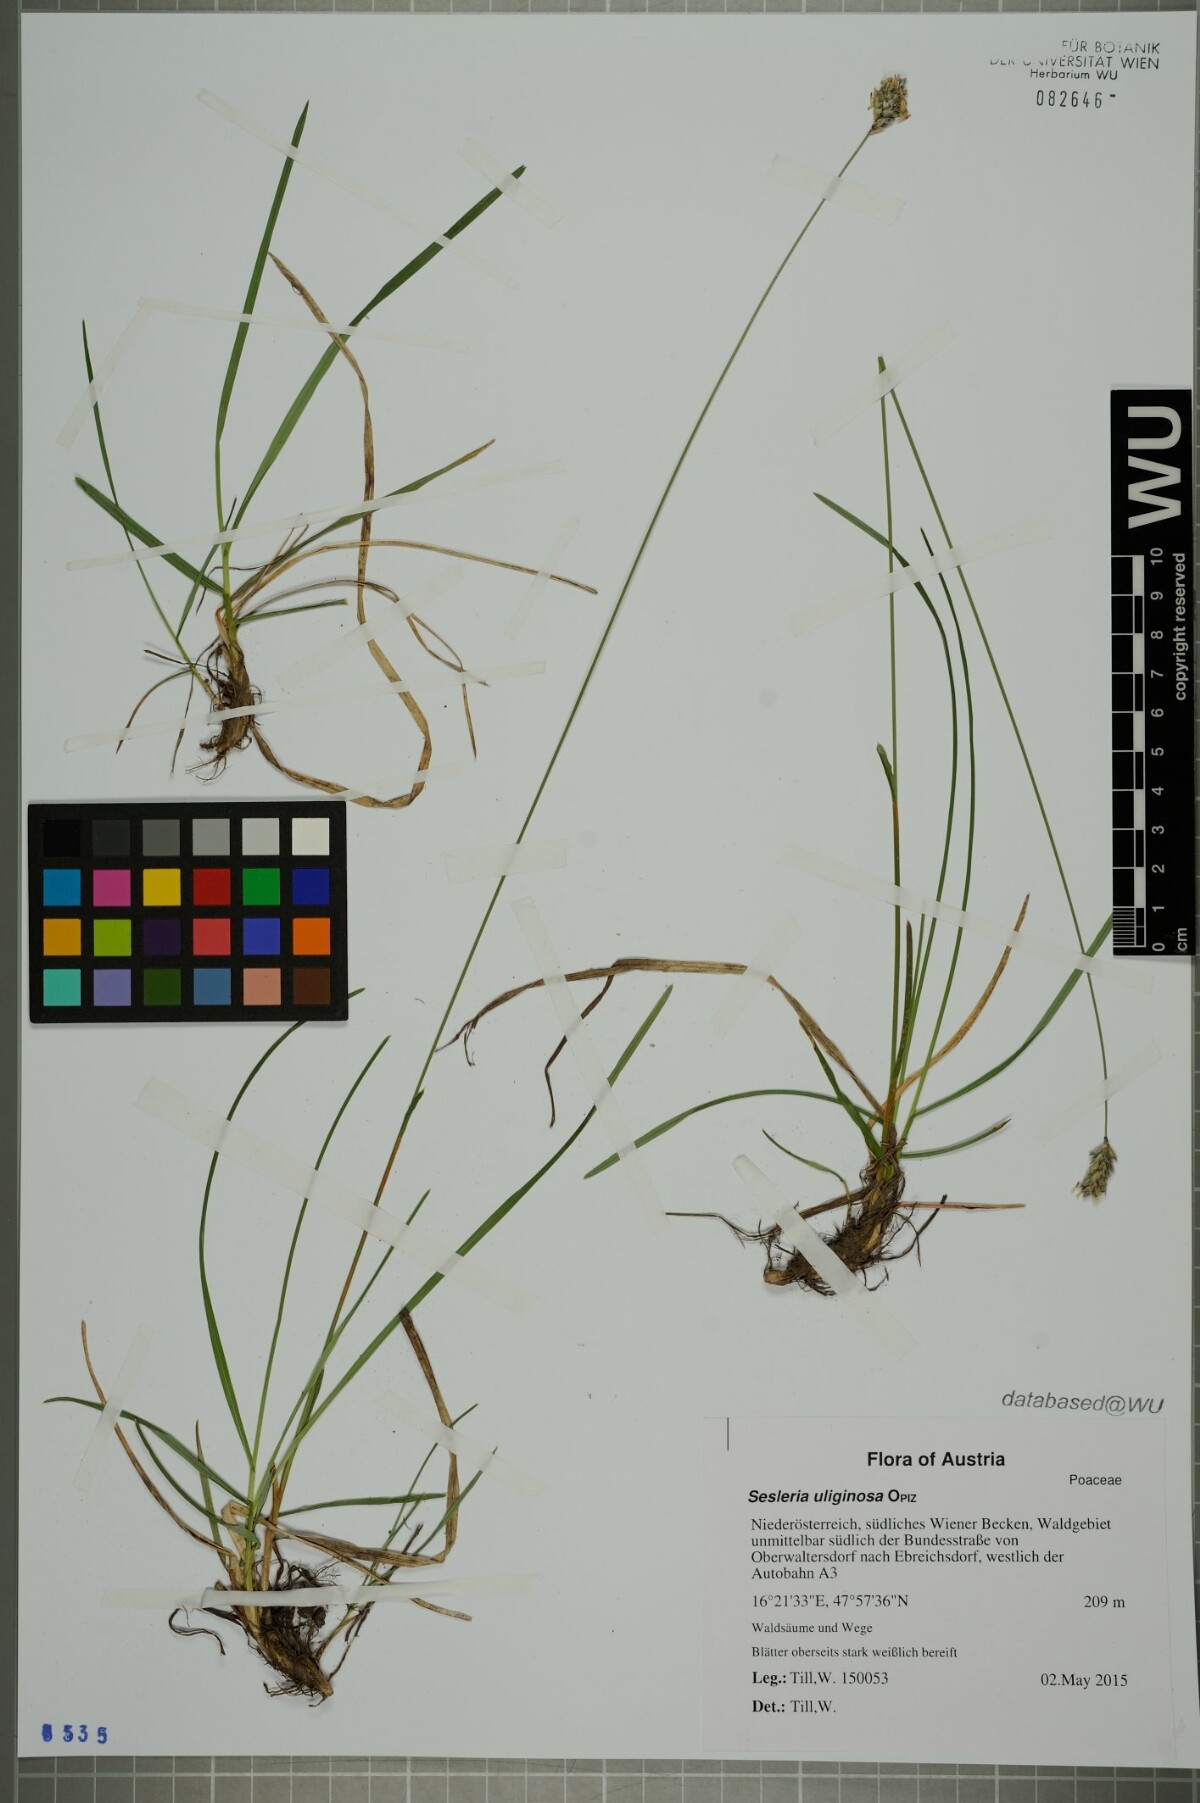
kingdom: Plantae
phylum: Tracheophyta
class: Liliopsida
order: Poales
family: Poaceae
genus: Sesleria
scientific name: Sesleria uliginosa
